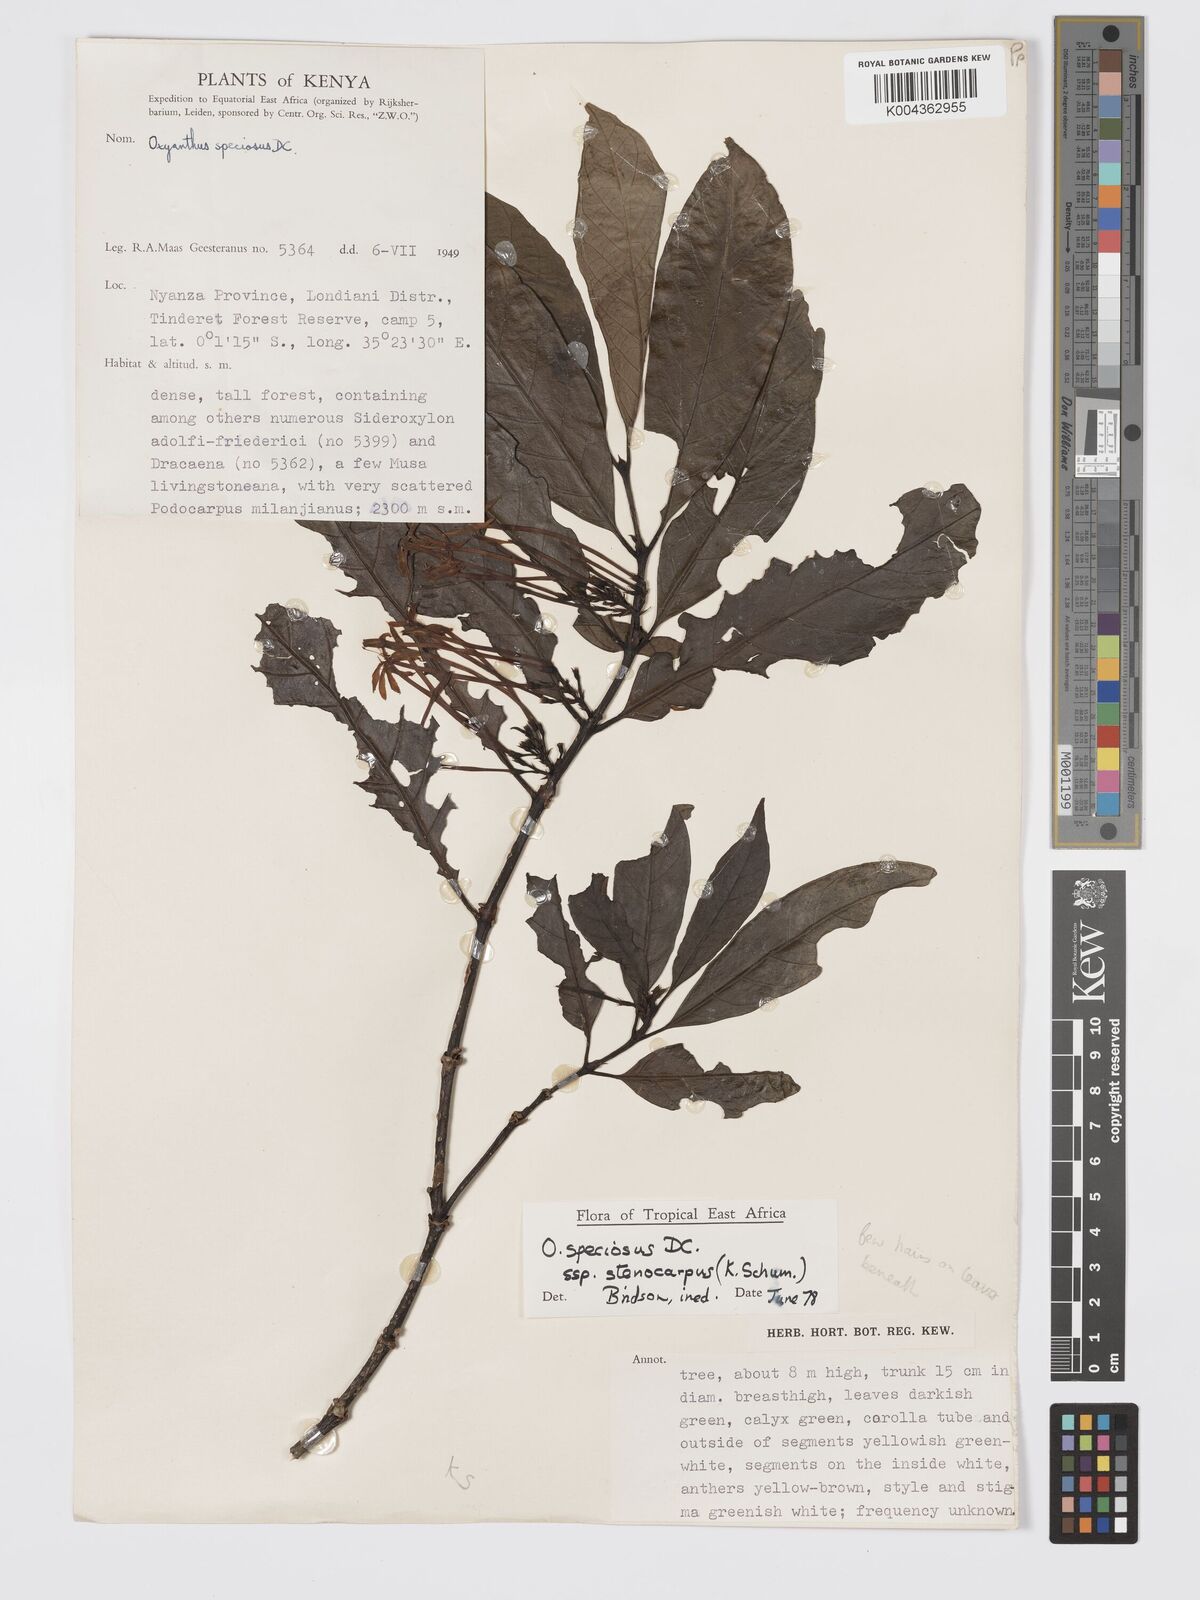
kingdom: Plantae
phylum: Tracheophyta
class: Magnoliopsida
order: Gentianales
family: Rubiaceae
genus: Oxyanthus
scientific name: Oxyanthus speciosus
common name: Whipstick loquat
